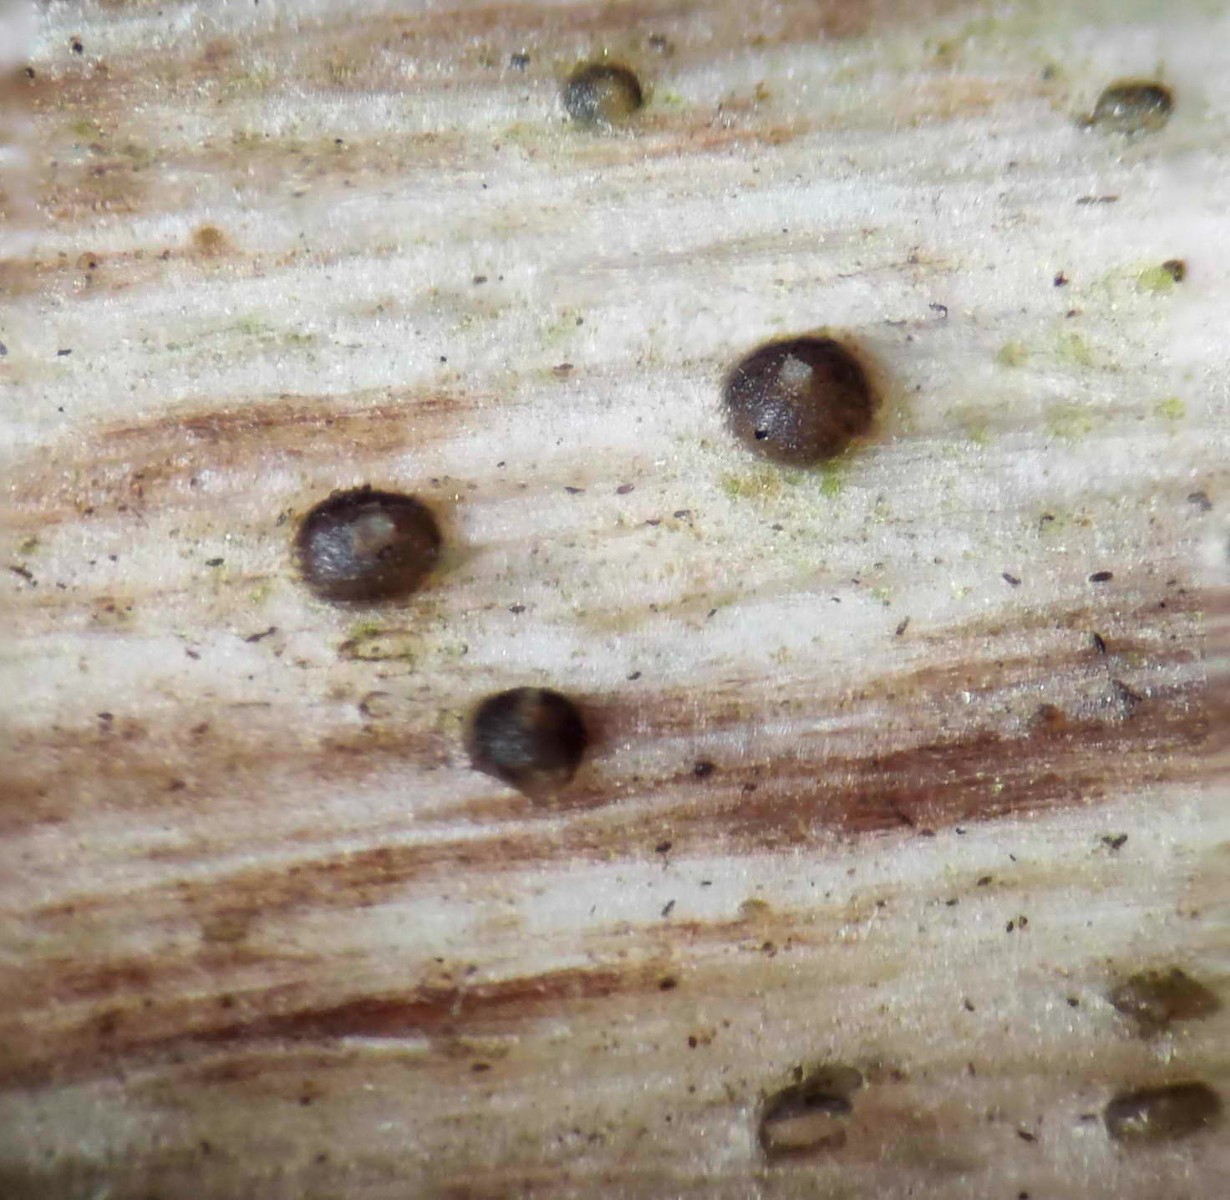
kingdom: Fungi
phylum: Ascomycota
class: Sordariomycetes
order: Xylariales
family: Hyponectriaceae
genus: Exarmidium
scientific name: Exarmidium inclusum
